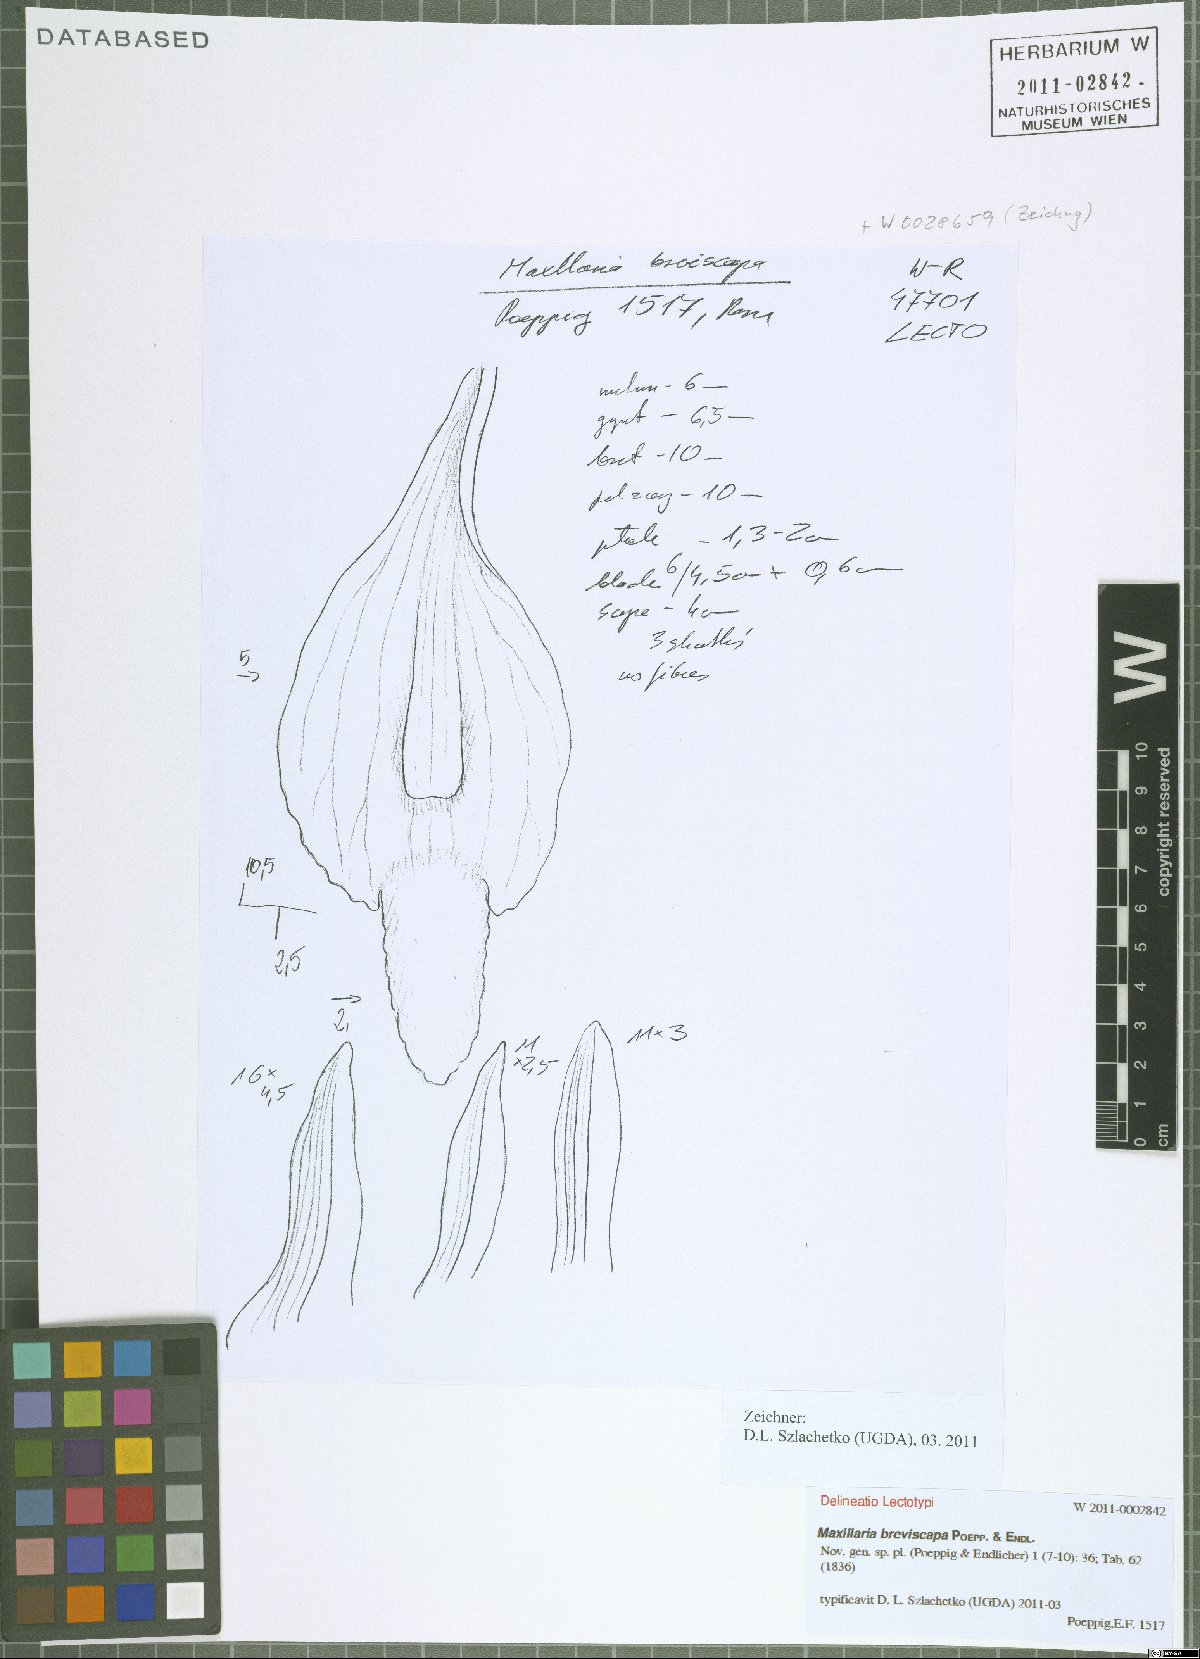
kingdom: Plantae
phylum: Tracheophyta
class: Liliopsida
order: Asparagales
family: Orchidaceae
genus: Maxillaria
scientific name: Maxillaria breviscapa
